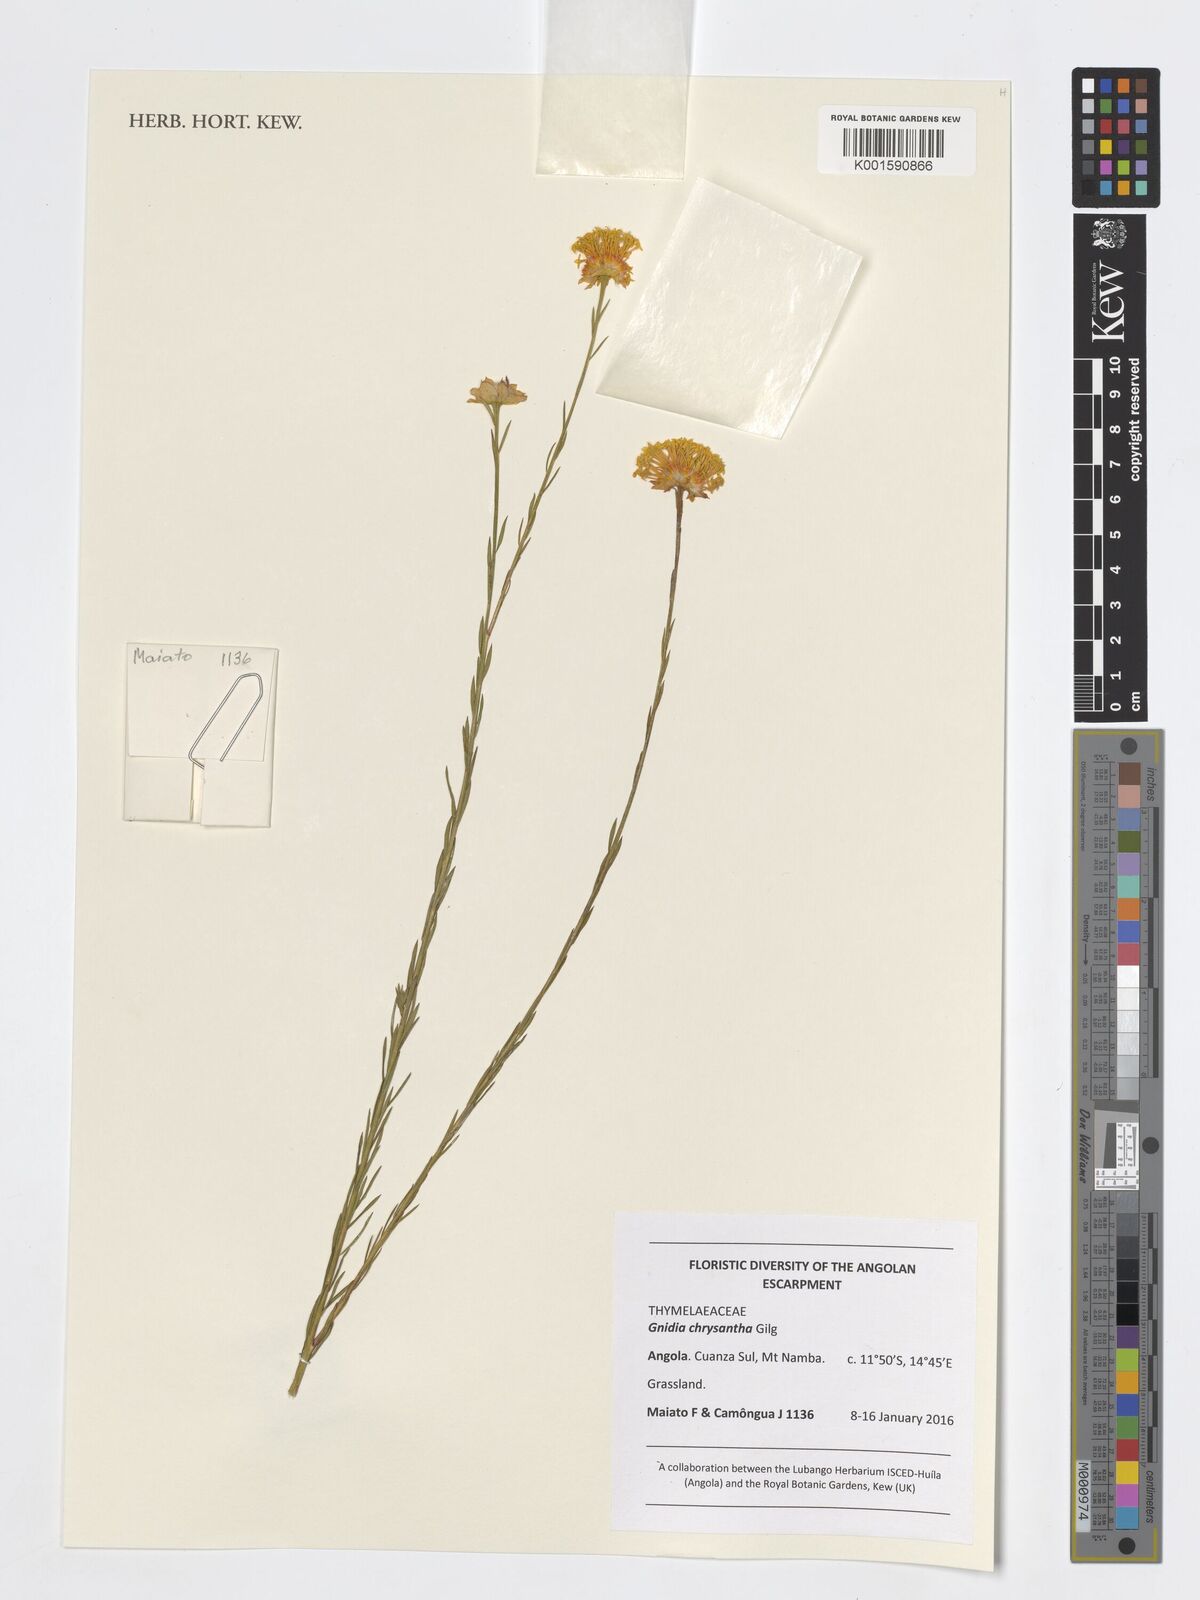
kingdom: Plantae
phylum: Tracheophyta
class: Magnoliopsida
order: Malvales
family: Thymelaeaceae
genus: Gnidia
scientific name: Gnidia chrysantha
